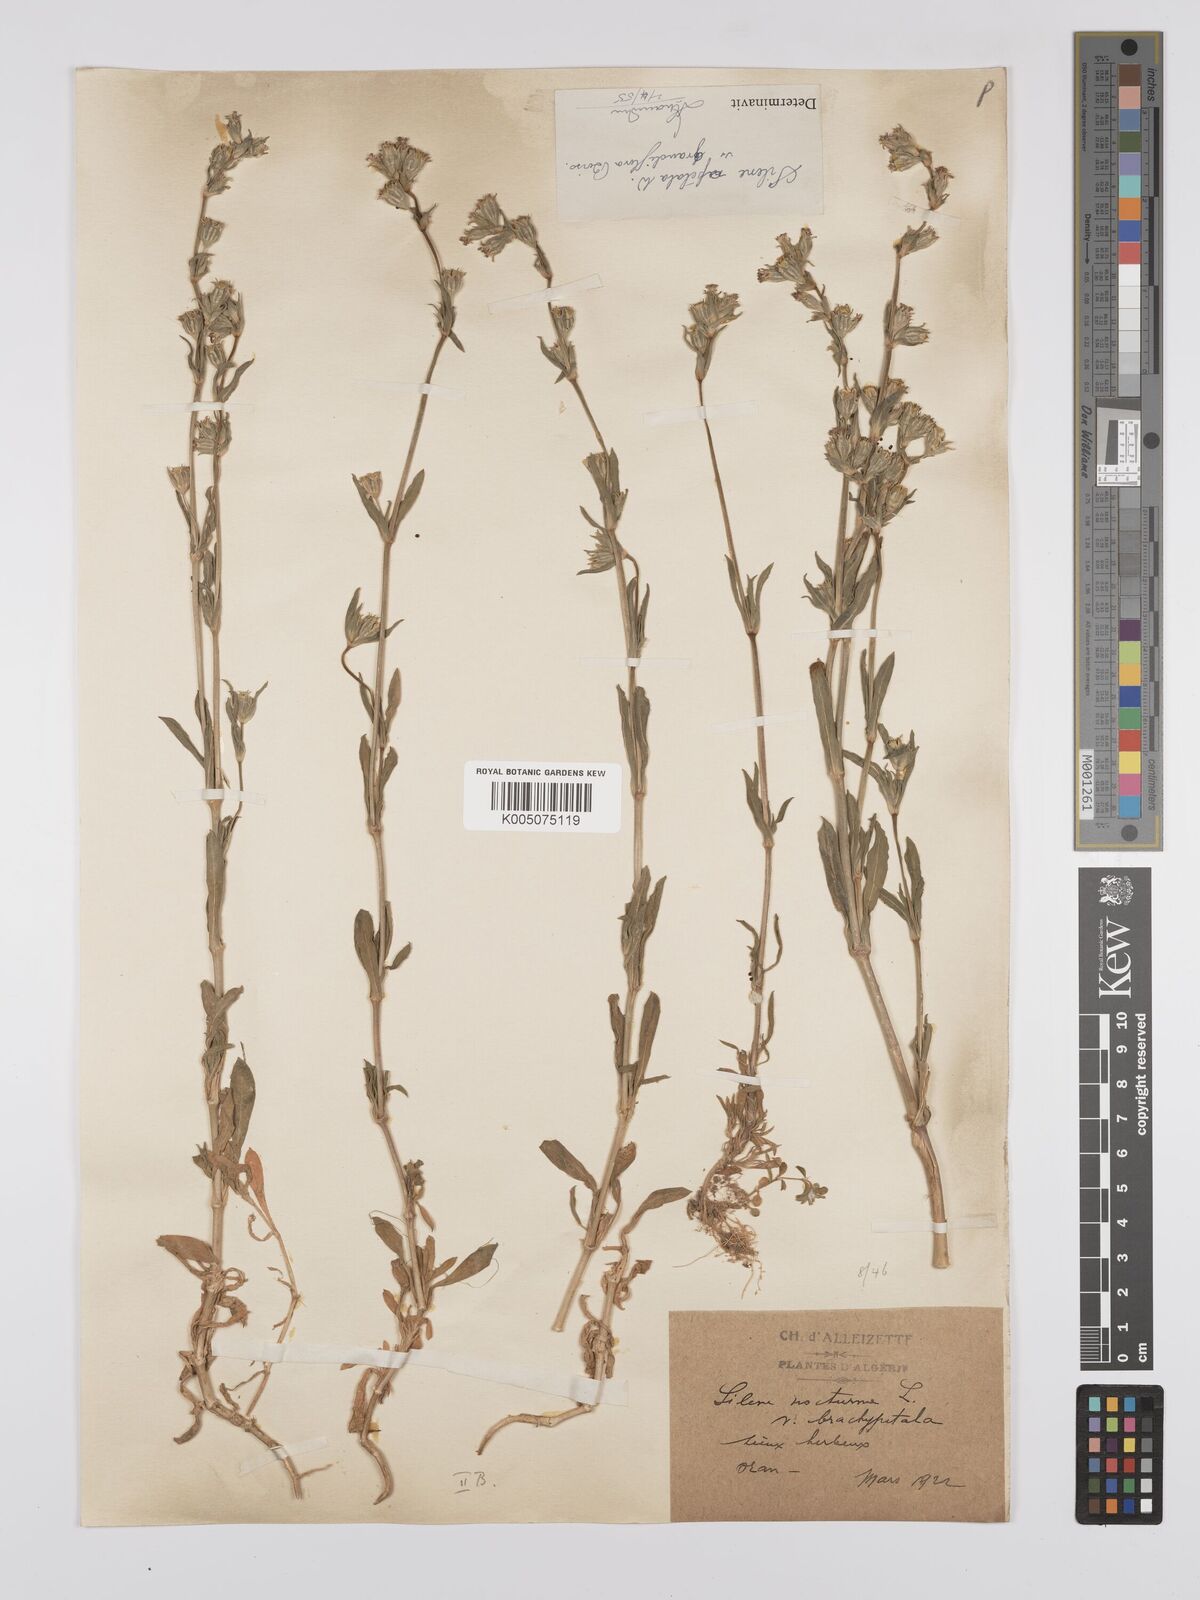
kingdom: Plantae
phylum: Tracheophyta
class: Magnoliopsida
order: Caryophyllales
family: Caryophyllaceae
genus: Silene
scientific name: Silene nocturna
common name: Mediterranean catchfly
